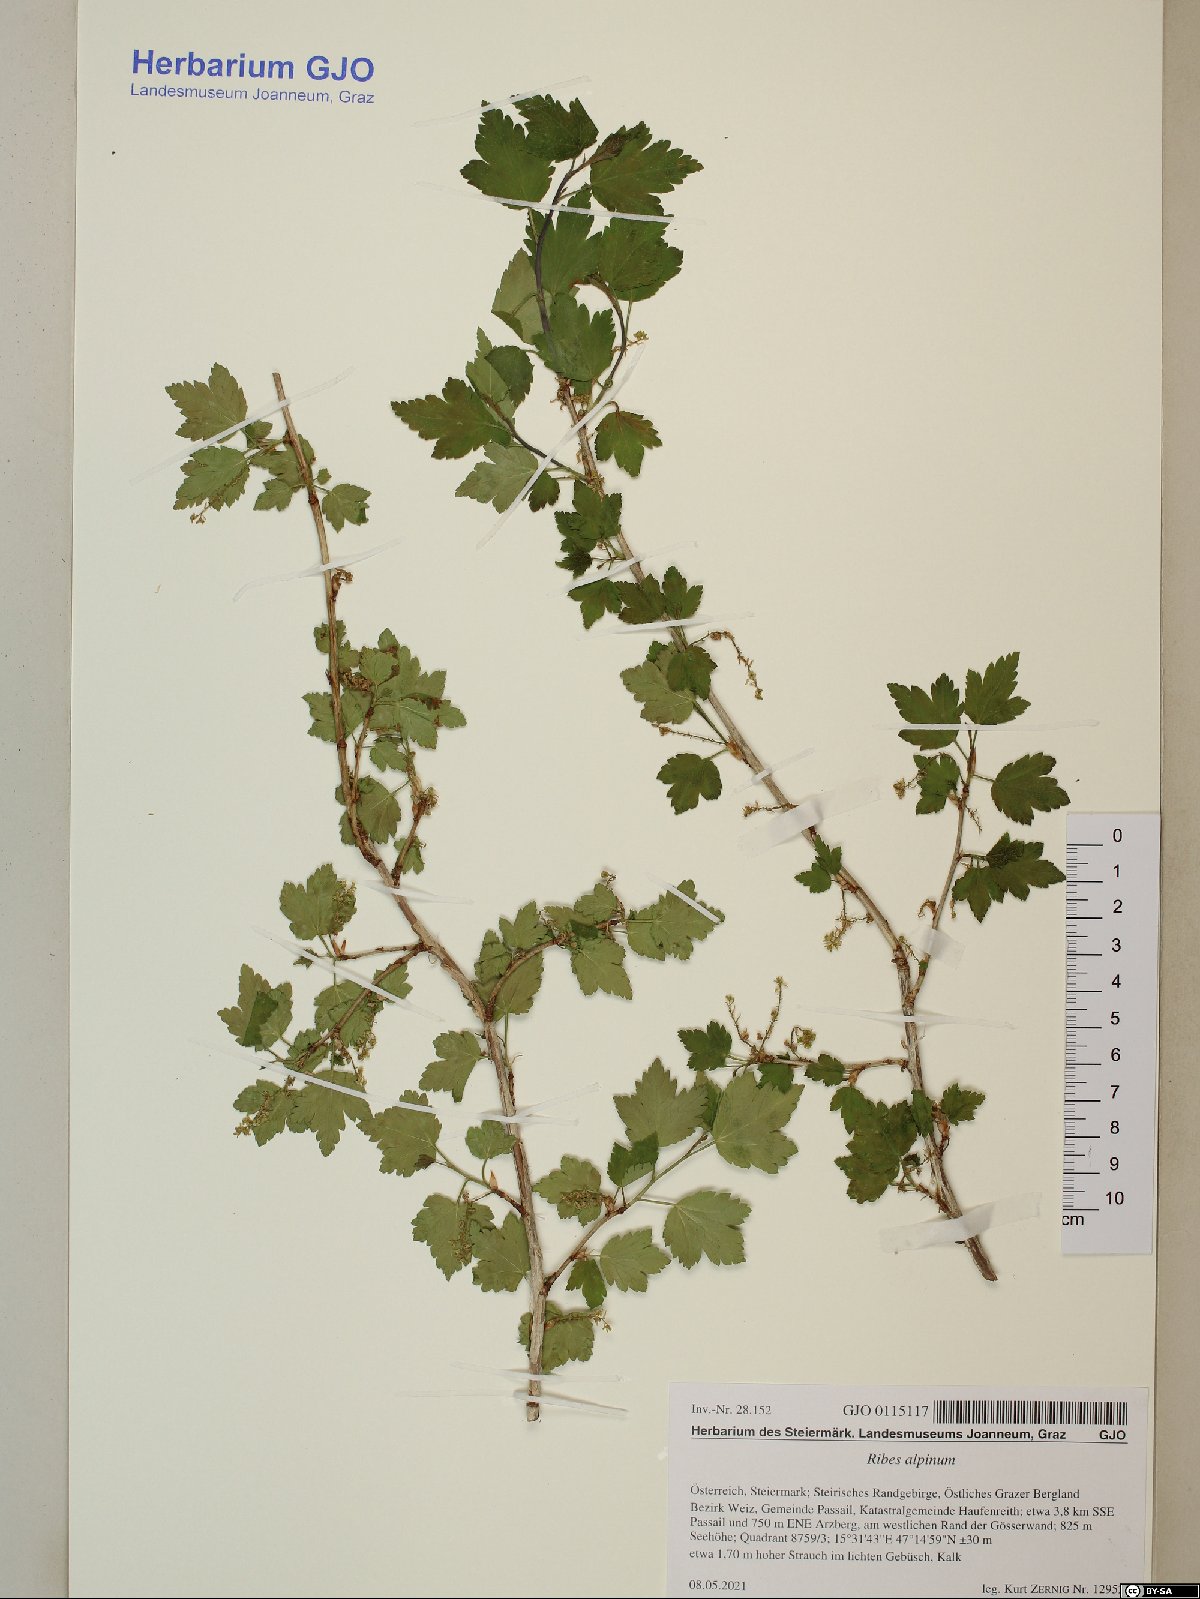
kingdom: Plantae
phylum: Tracheophyta
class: Magnoliopsida
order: Saxifragales
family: Grossulariaceae
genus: Ribes
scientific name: Ribes alpinum
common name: Alpine currant
